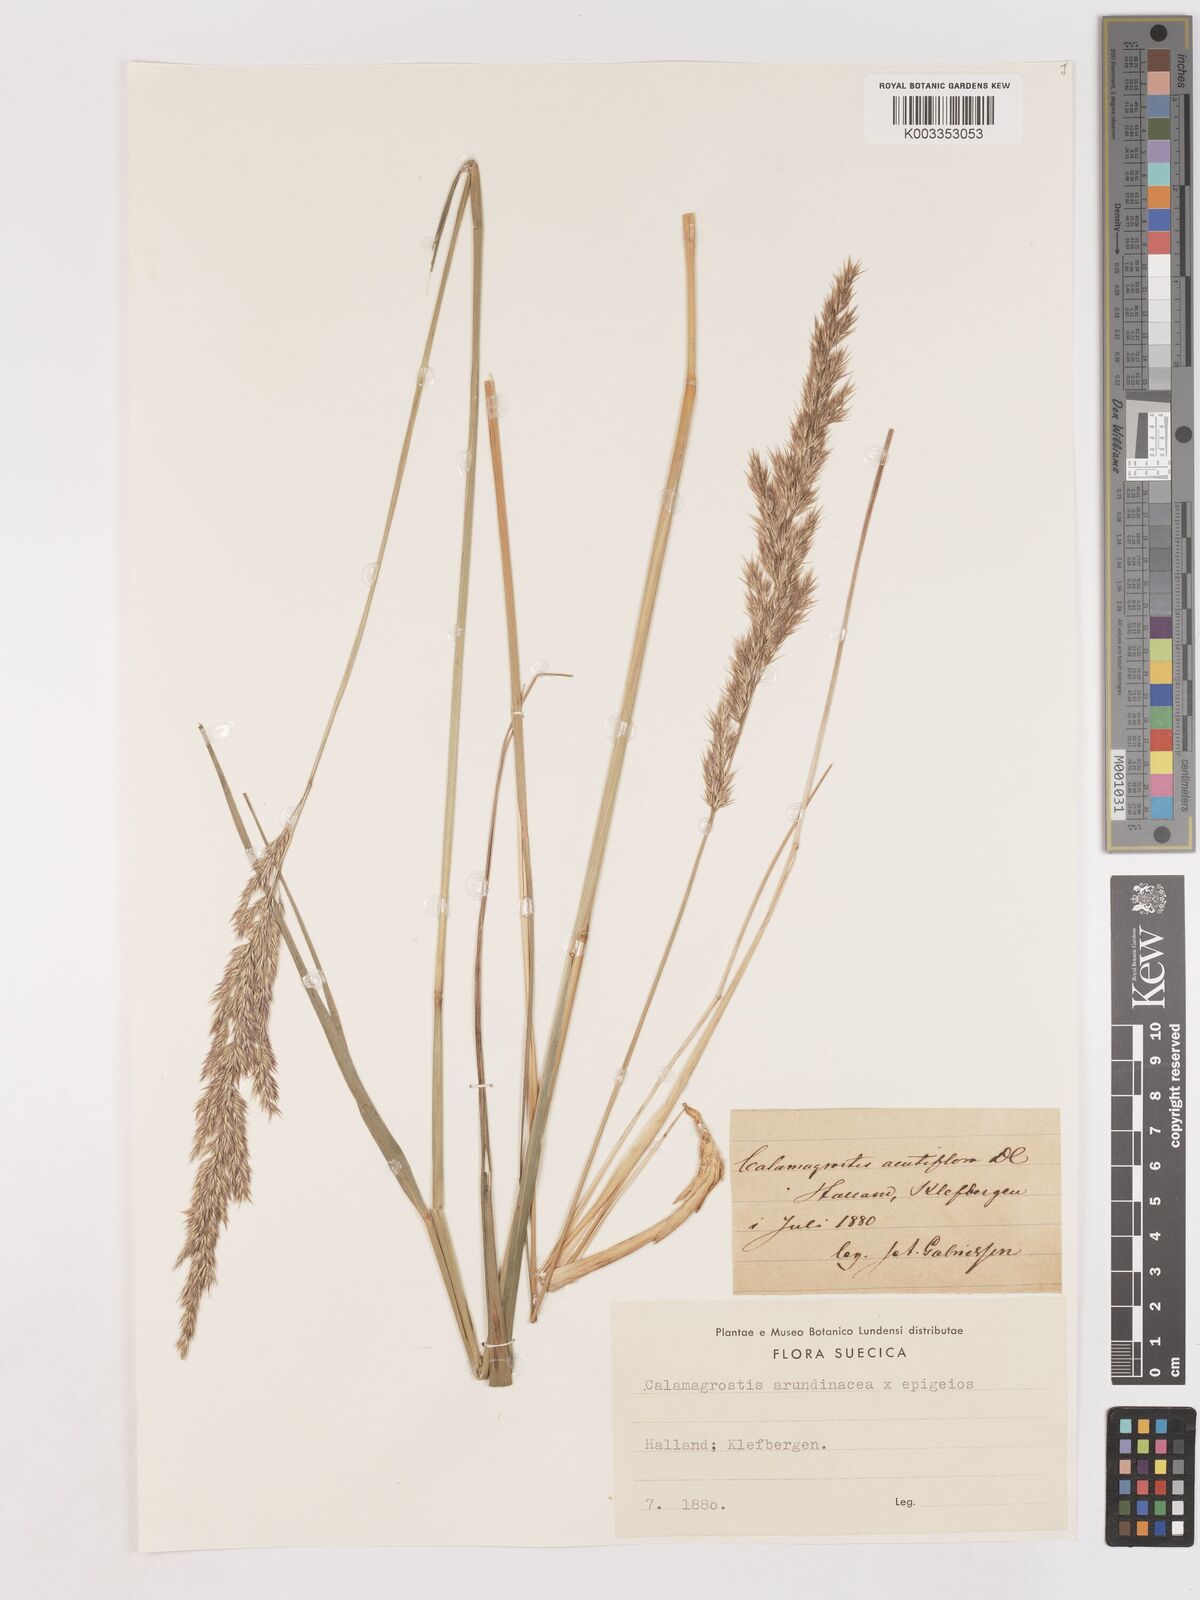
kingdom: Plantae
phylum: Tracheophyta
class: Liliopsida
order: Poales
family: Poaceae
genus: Calamagrostis
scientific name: Calamagrostis epigejos
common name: Wood small-reed
